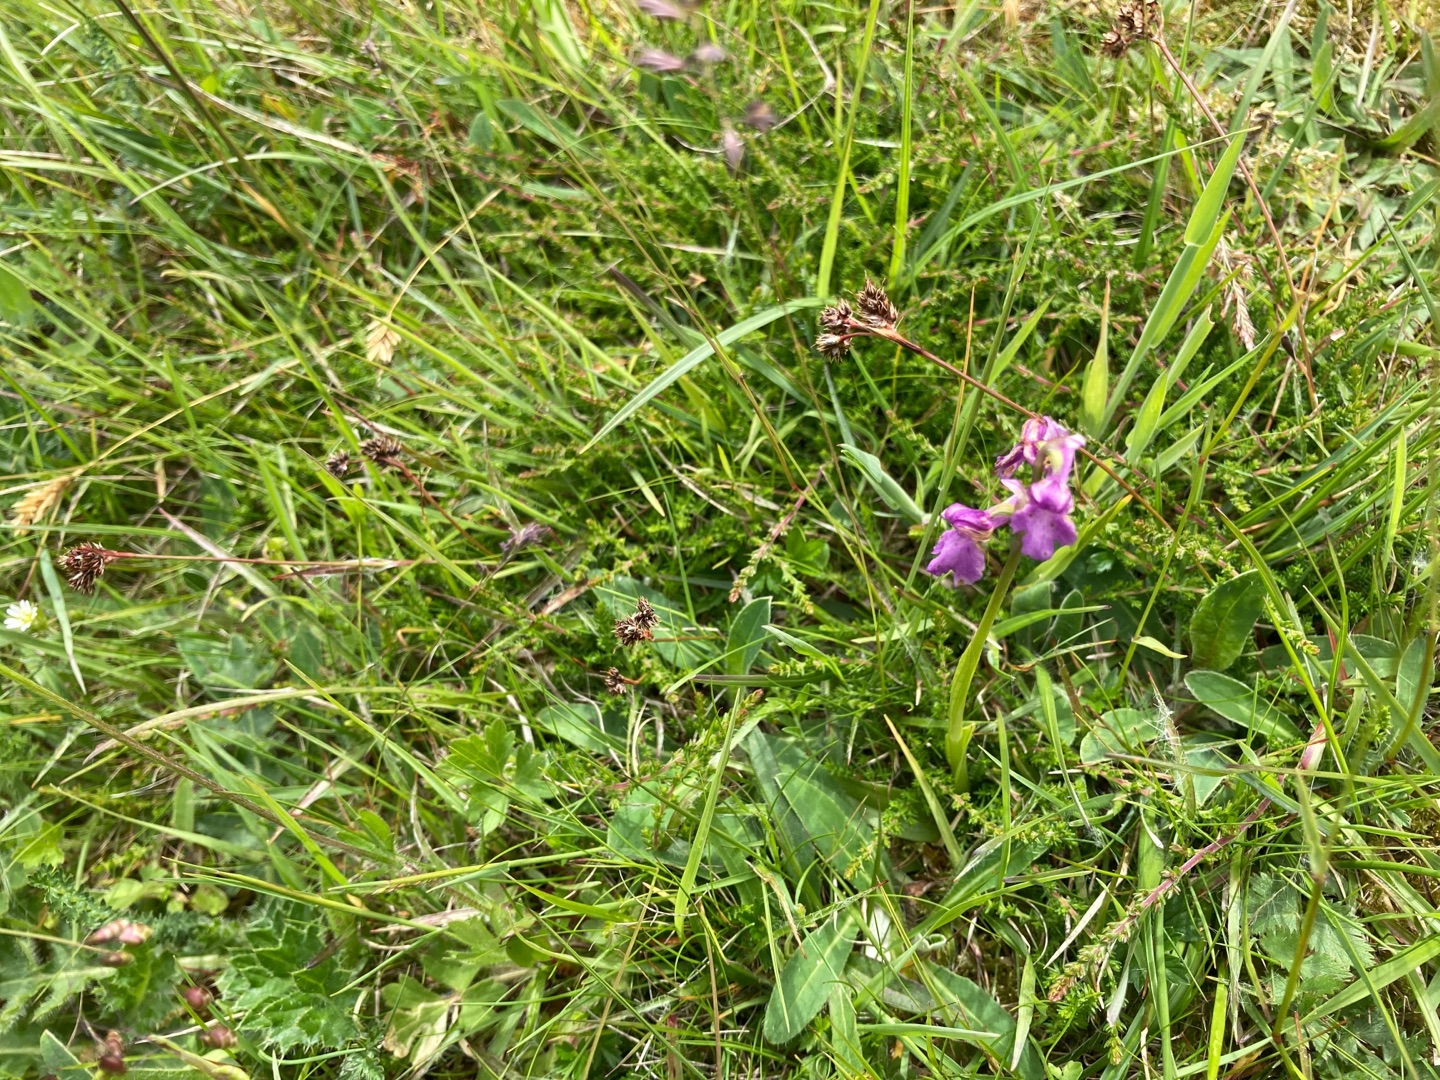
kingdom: Plantae
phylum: Tracheophyta
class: Liliopsida
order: Asparagales
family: Orchidaceae
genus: Anacamptis
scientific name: Anacamptis morio
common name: Salepgøgeurt
